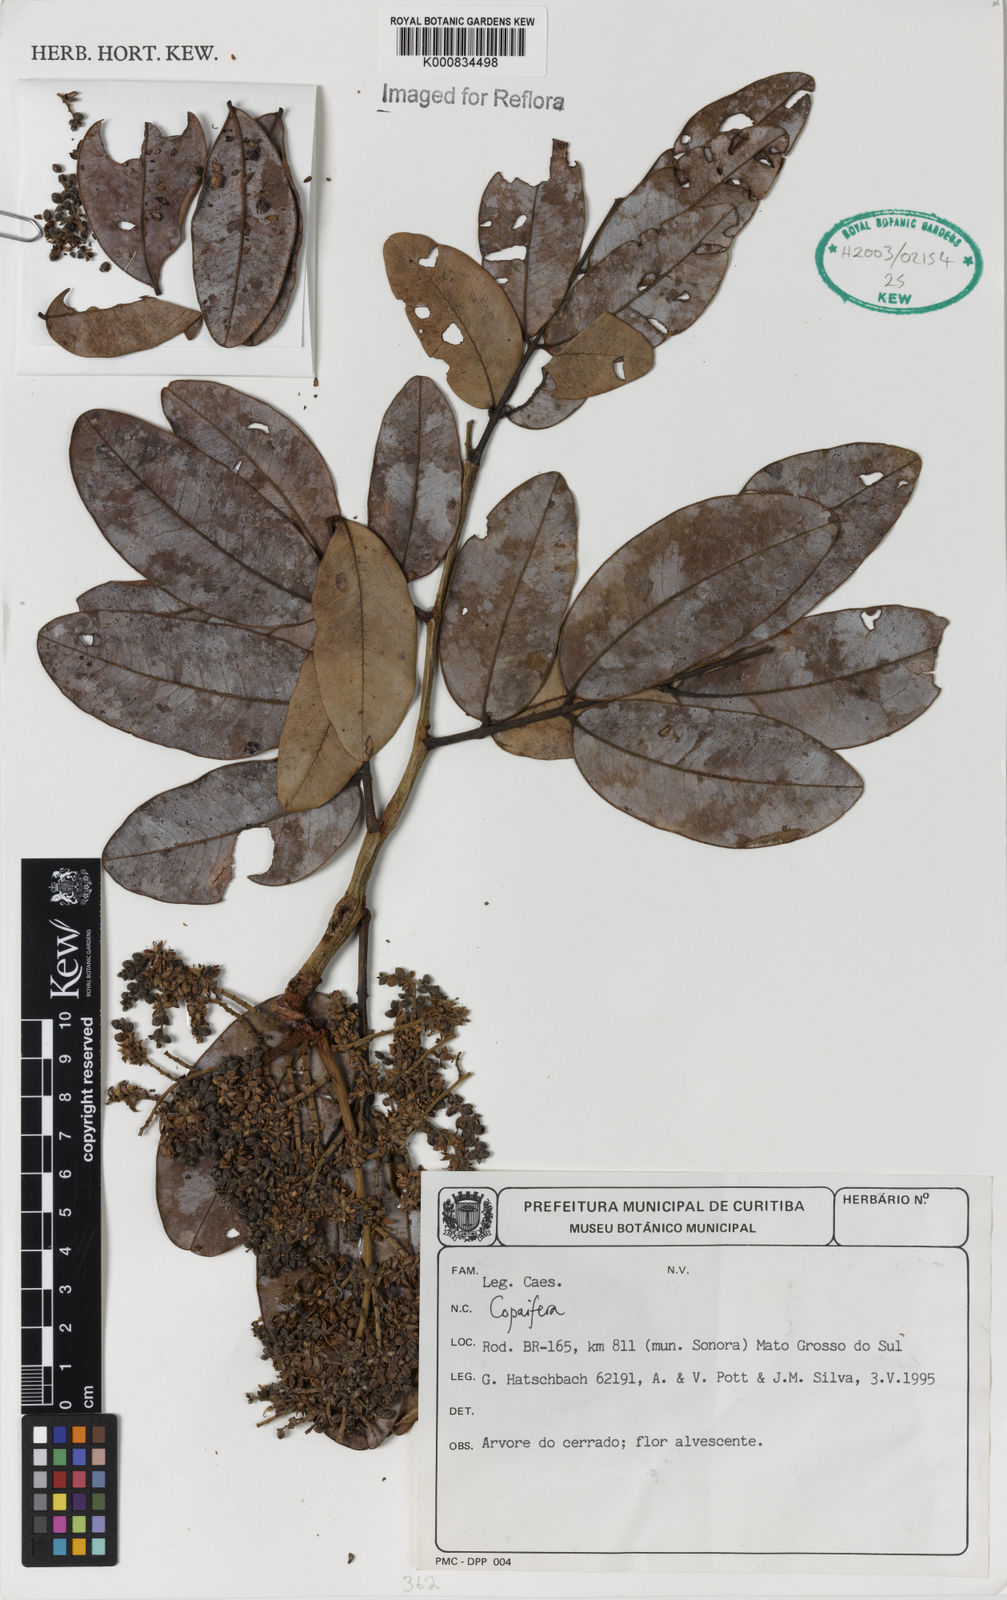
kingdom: Plantae
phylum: Tracheophyta
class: Magnoliopsida
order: Fabales
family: Fabaceae
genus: Copaifera
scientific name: Copaifera
